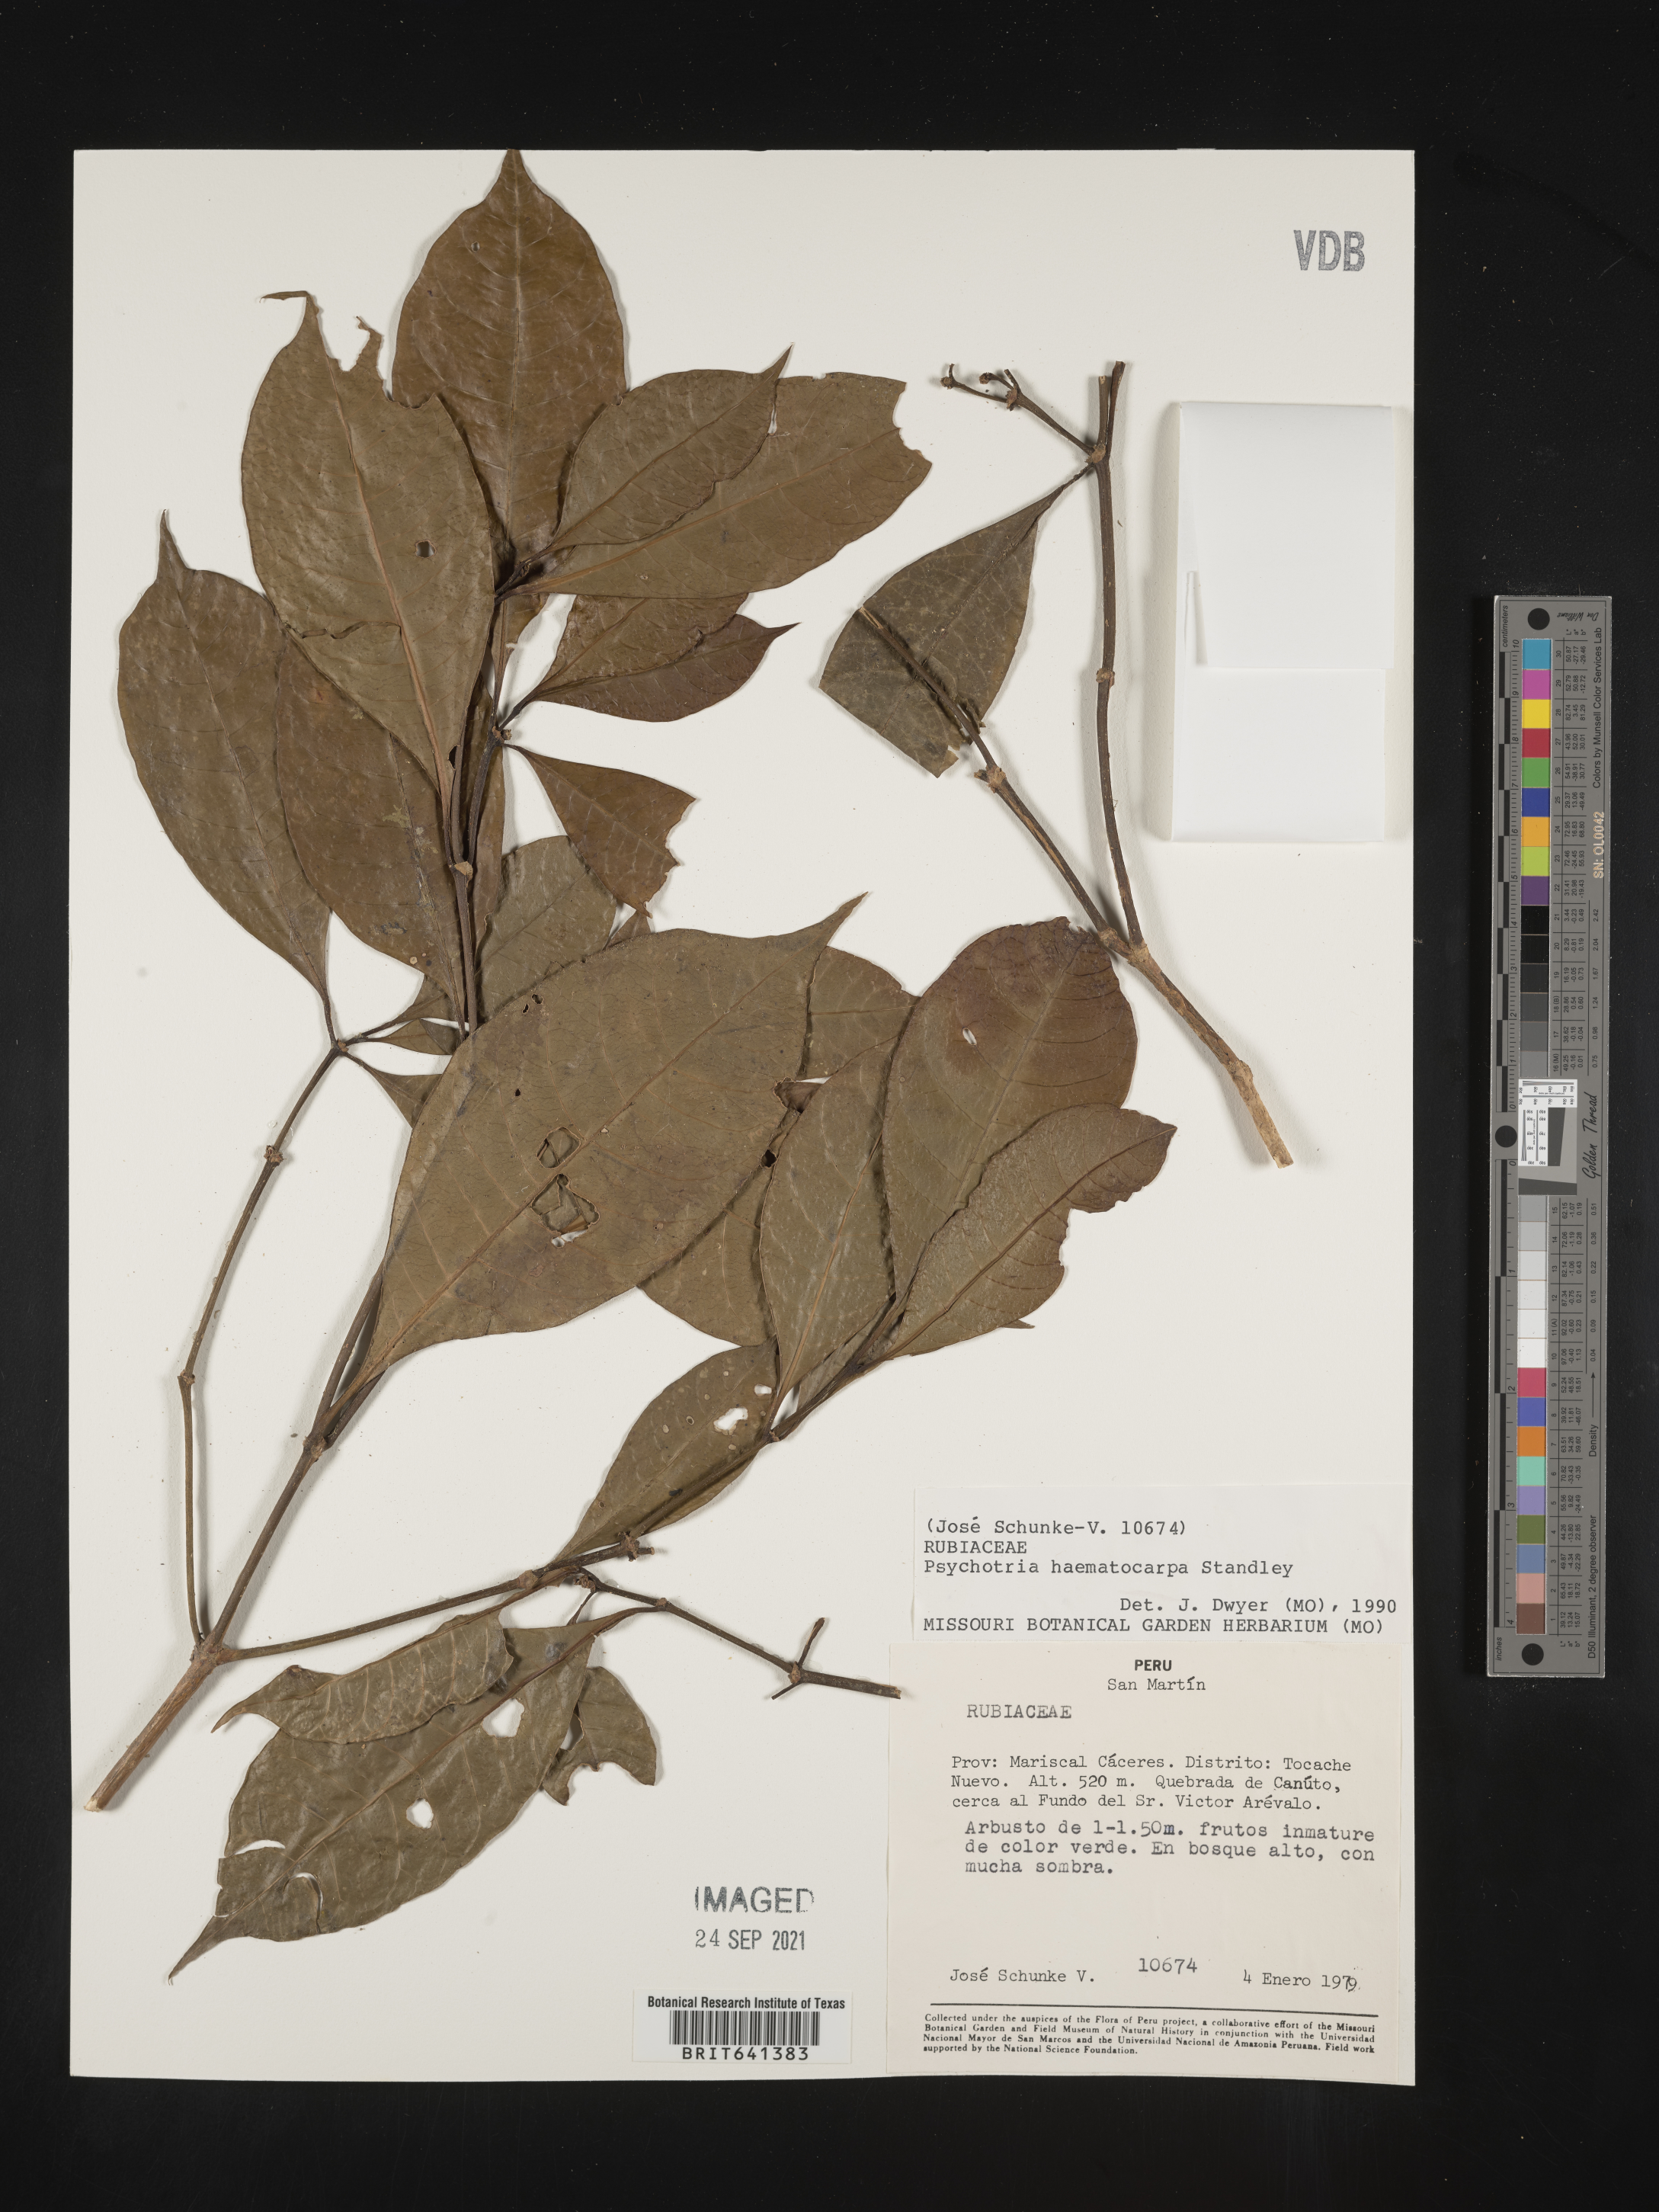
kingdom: Plantae
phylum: Tracheophyta
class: Magnoliopsida
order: Gentianales
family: Rubiaceae
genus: Psychotria
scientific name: Psychotria
